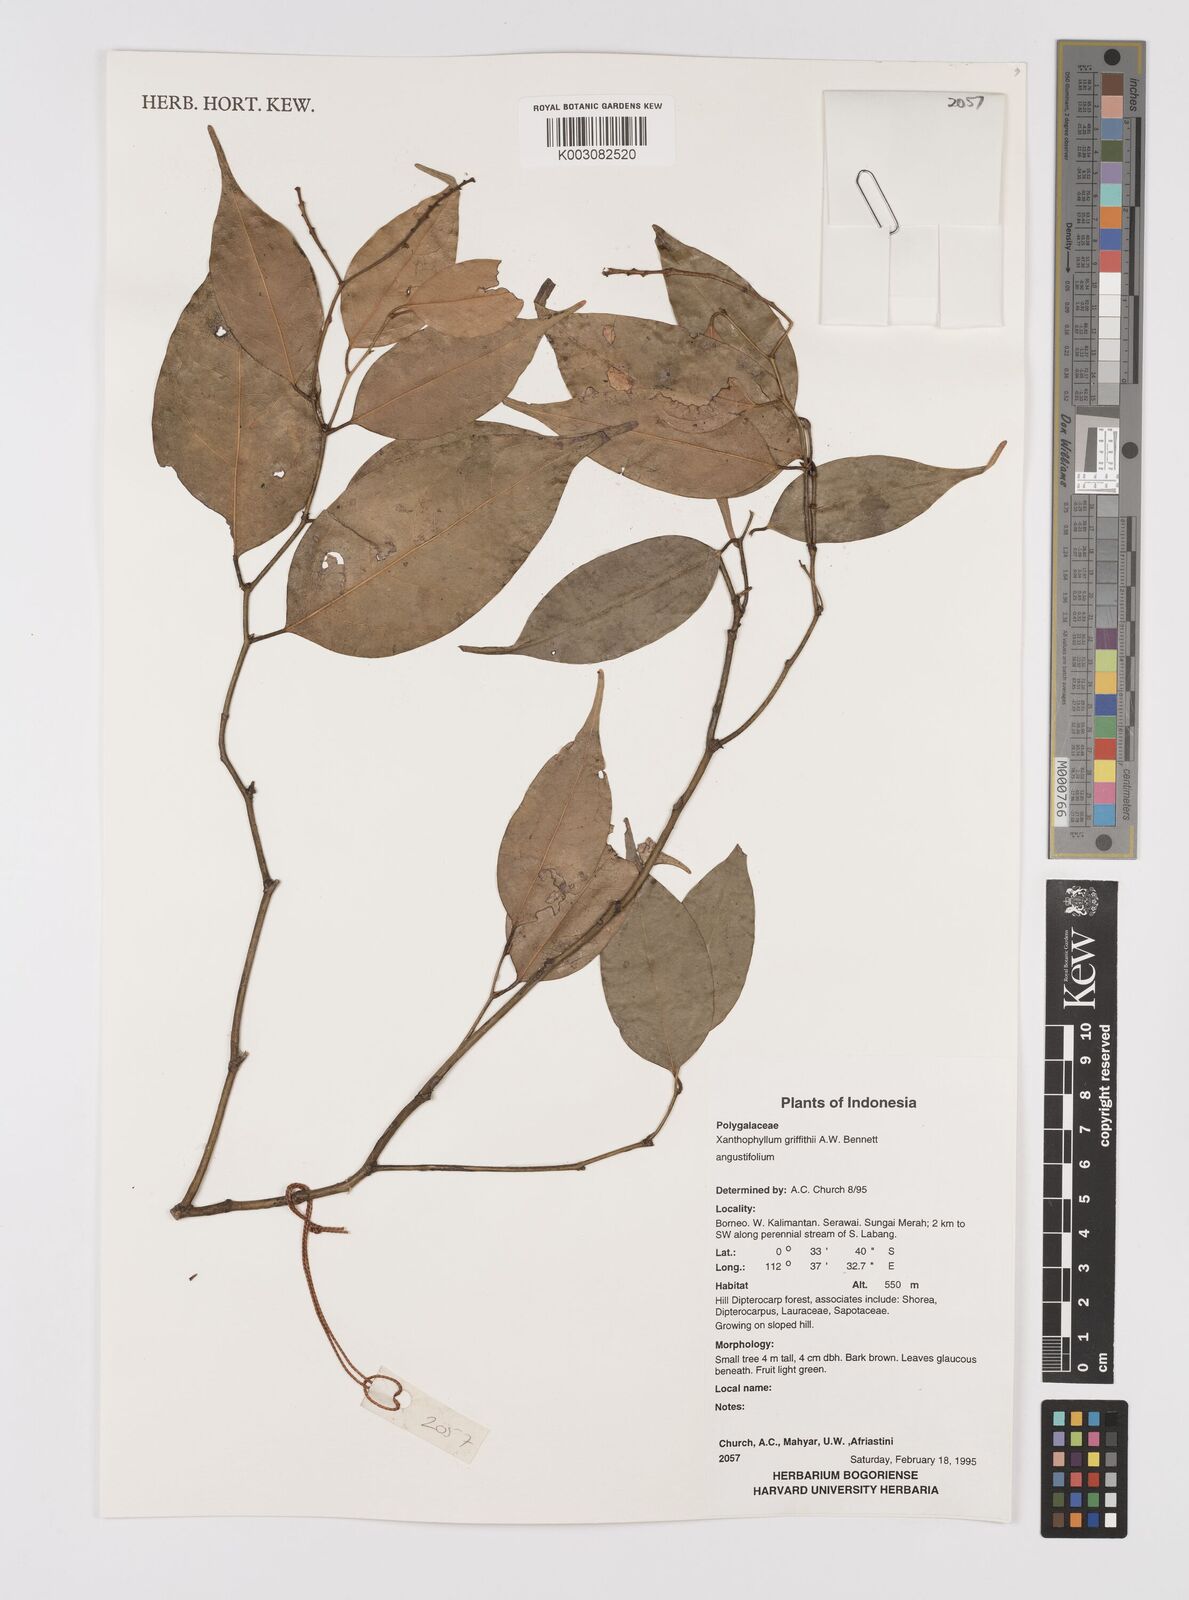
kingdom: Plantae
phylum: Tracheophyta
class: Magnoliopsida
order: Fabales
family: Polygalaceae
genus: Xanthophyllum
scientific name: Xanthophyllum griffithii
